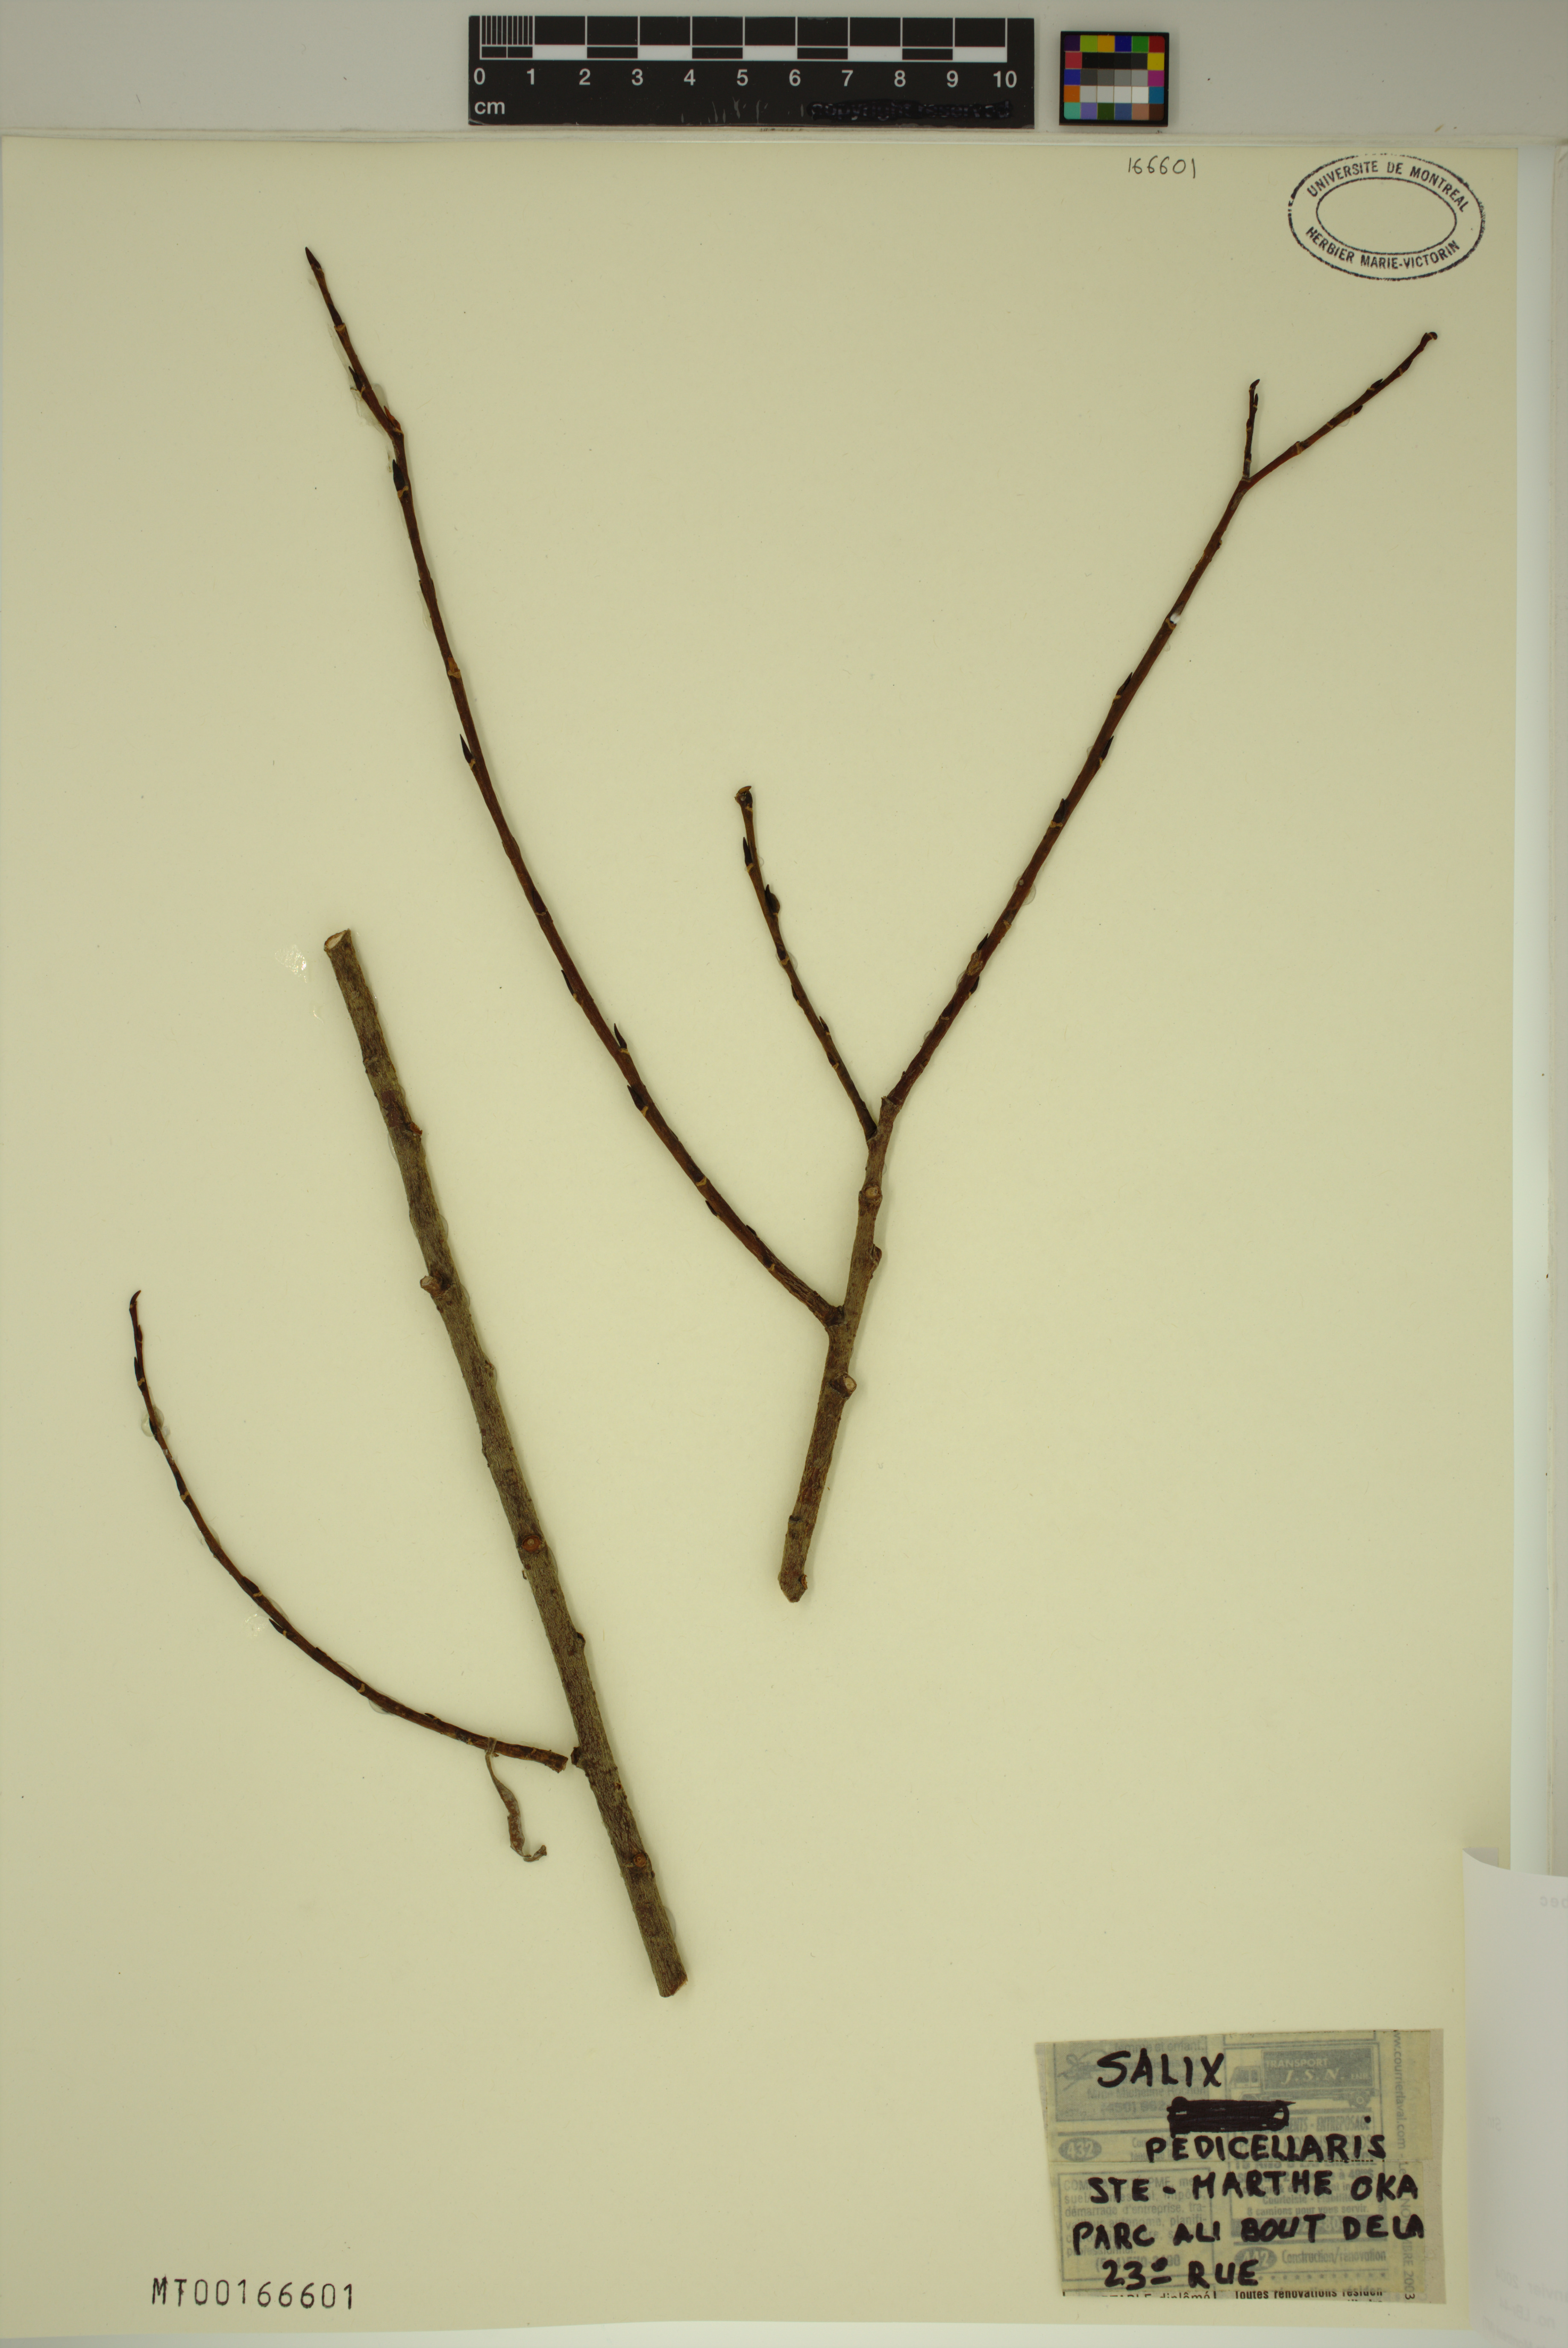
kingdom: Plantae
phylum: Tracheophyta
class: Magnoliopsida
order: Malpighiales
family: Salicaceae
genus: Salix
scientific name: Salix pedicellaris
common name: Bog willow
